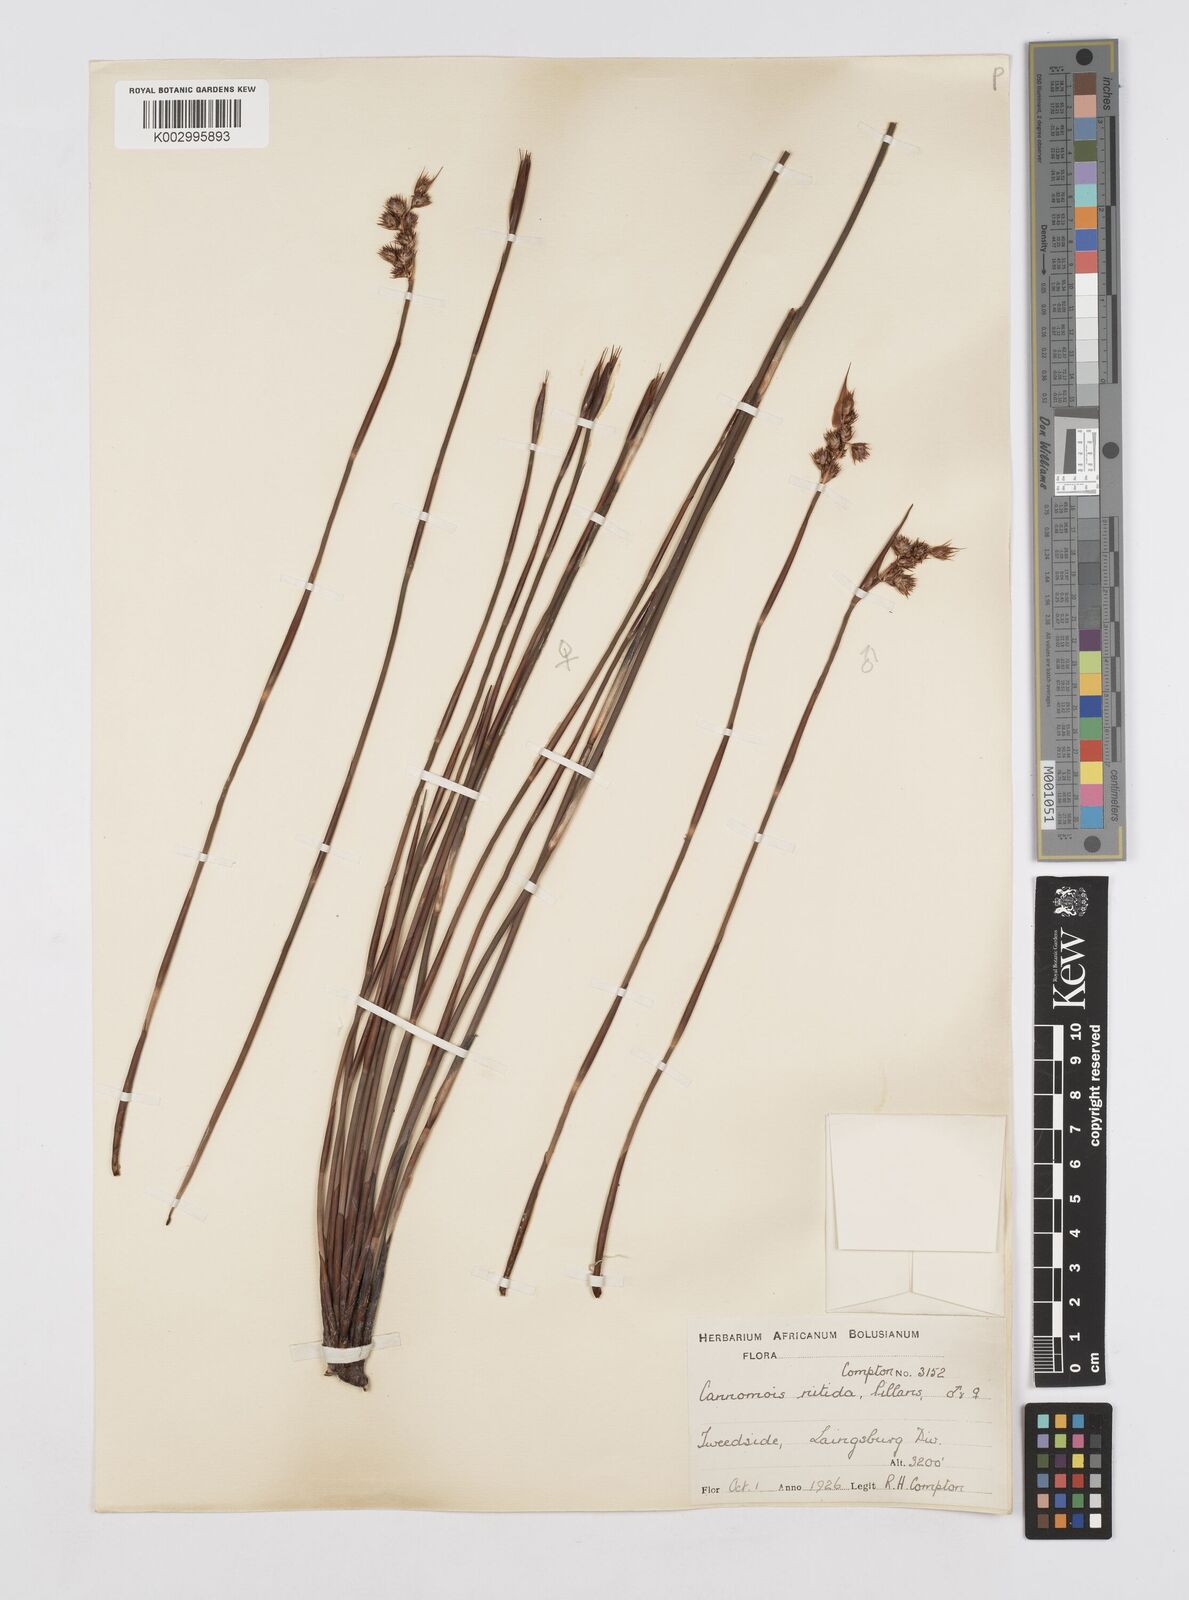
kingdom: Plantae
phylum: Tracheophyta
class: Liliopsida
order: Poales
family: Restionaceae
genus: Cannomois
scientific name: Cannomois nitida
